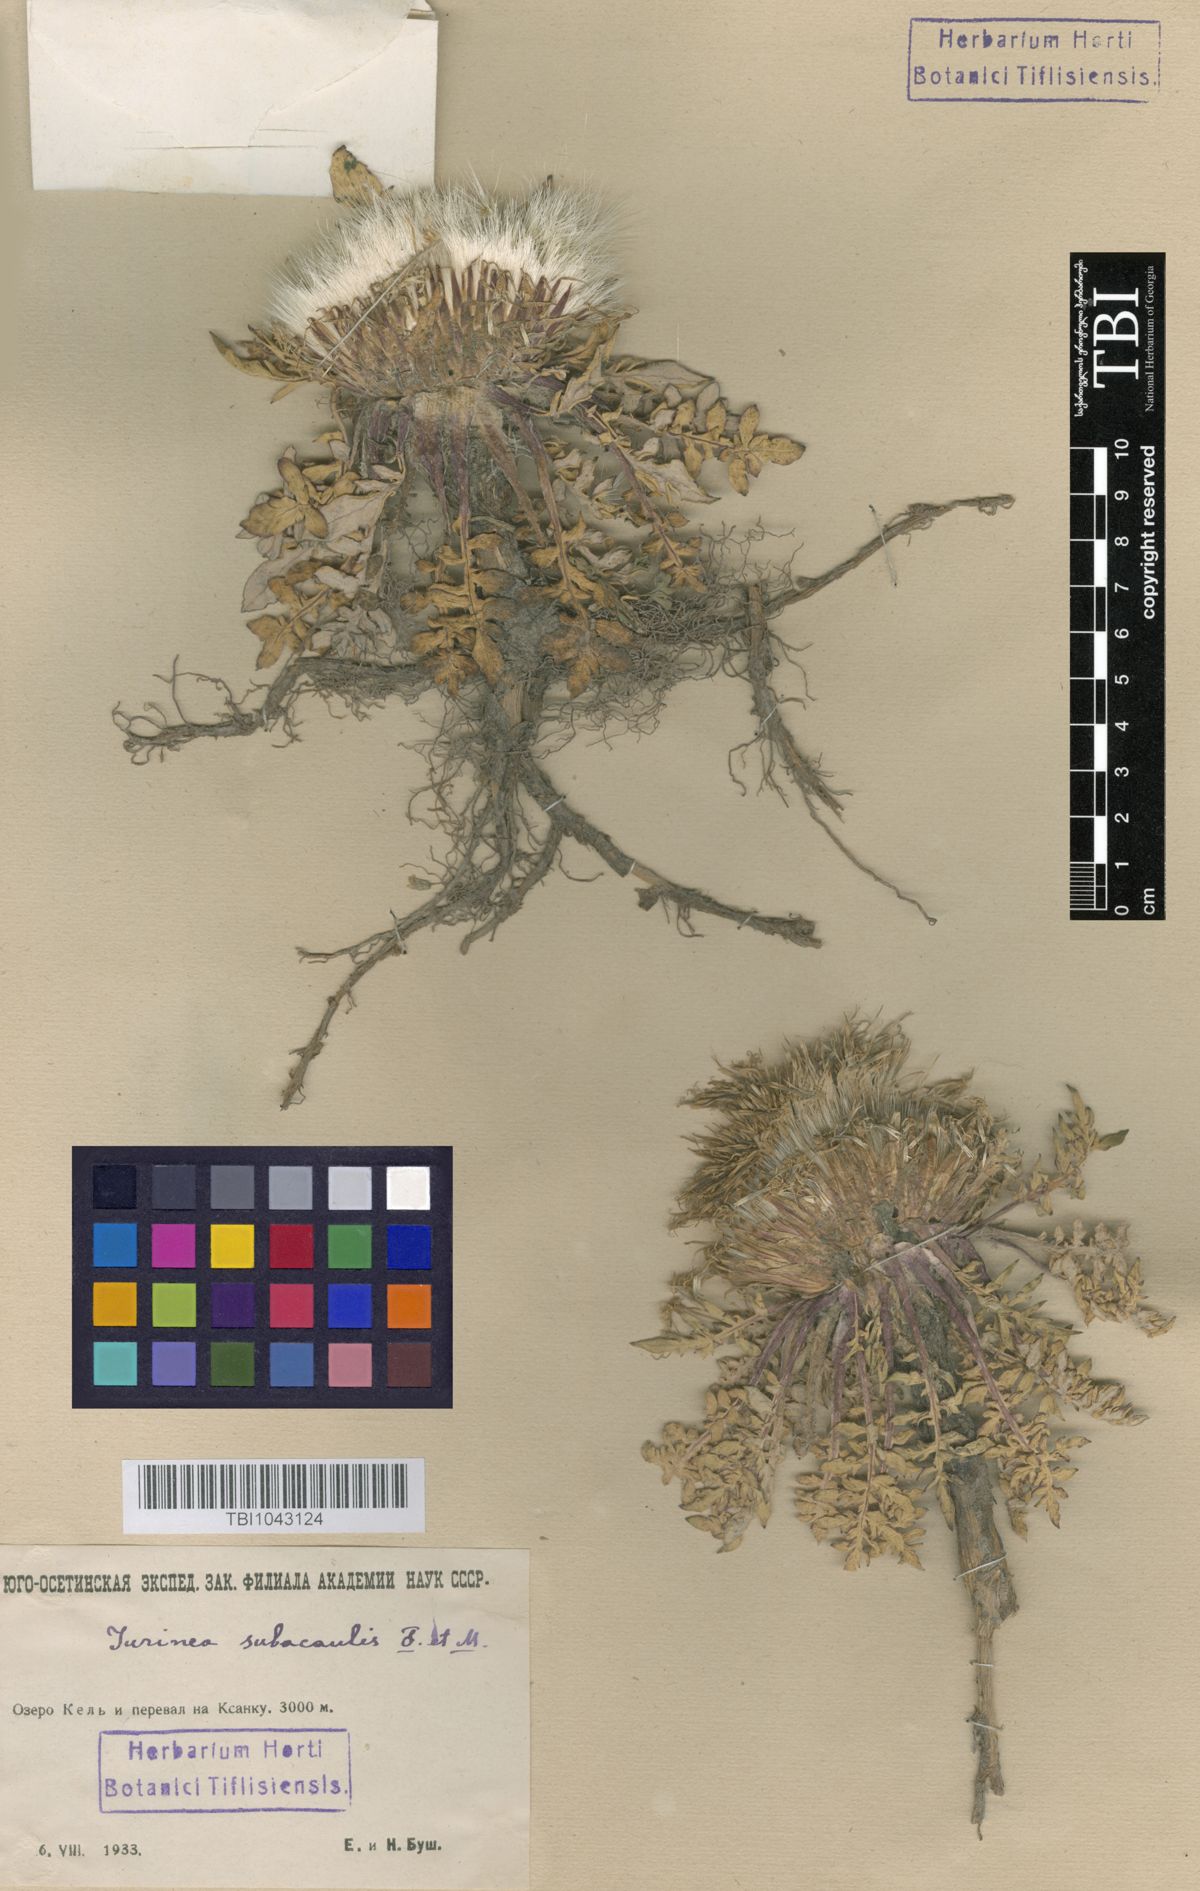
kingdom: Plantae
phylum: Tracheophyta
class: Magnoliopsida
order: Asterales
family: Asteraceae
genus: Jurinea
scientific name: Jurinea moschus
